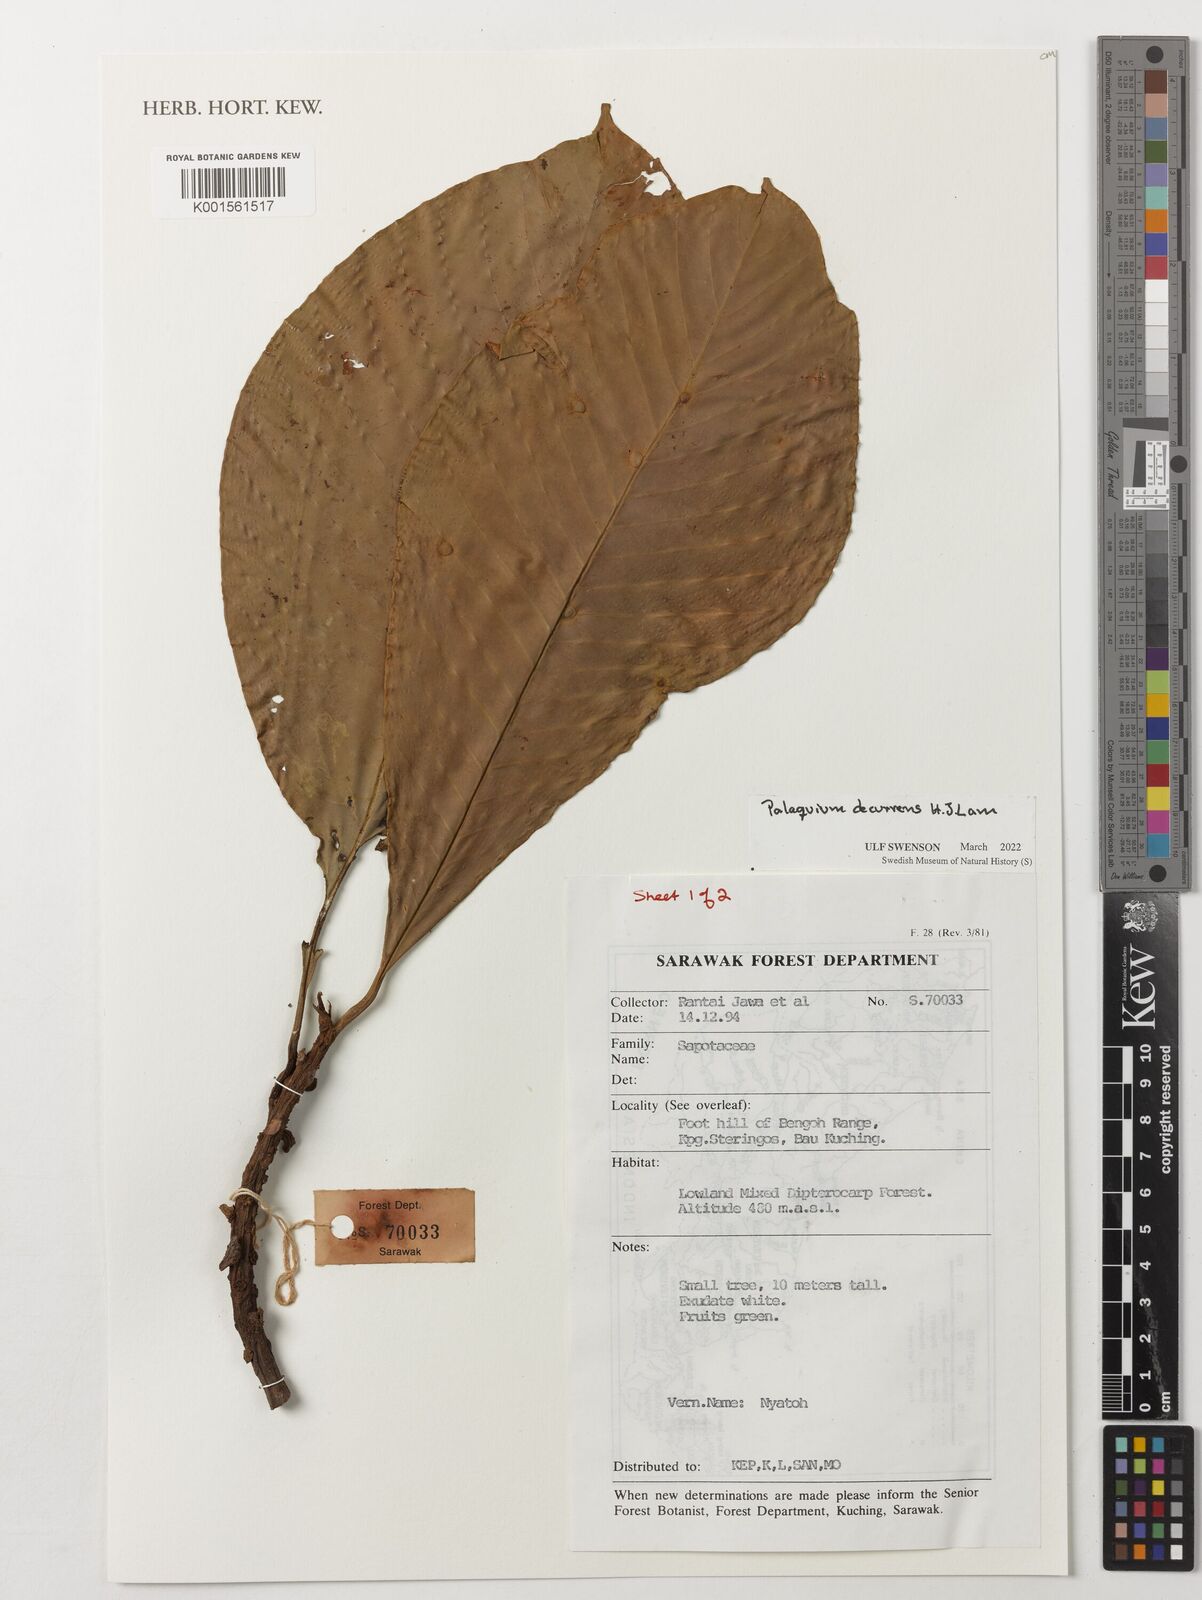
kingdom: Plantae
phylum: Tracheophyta
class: Magnoliopsida
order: Ericales
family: Sapotaceae
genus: Palaquium
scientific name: Palaquium decurrens
